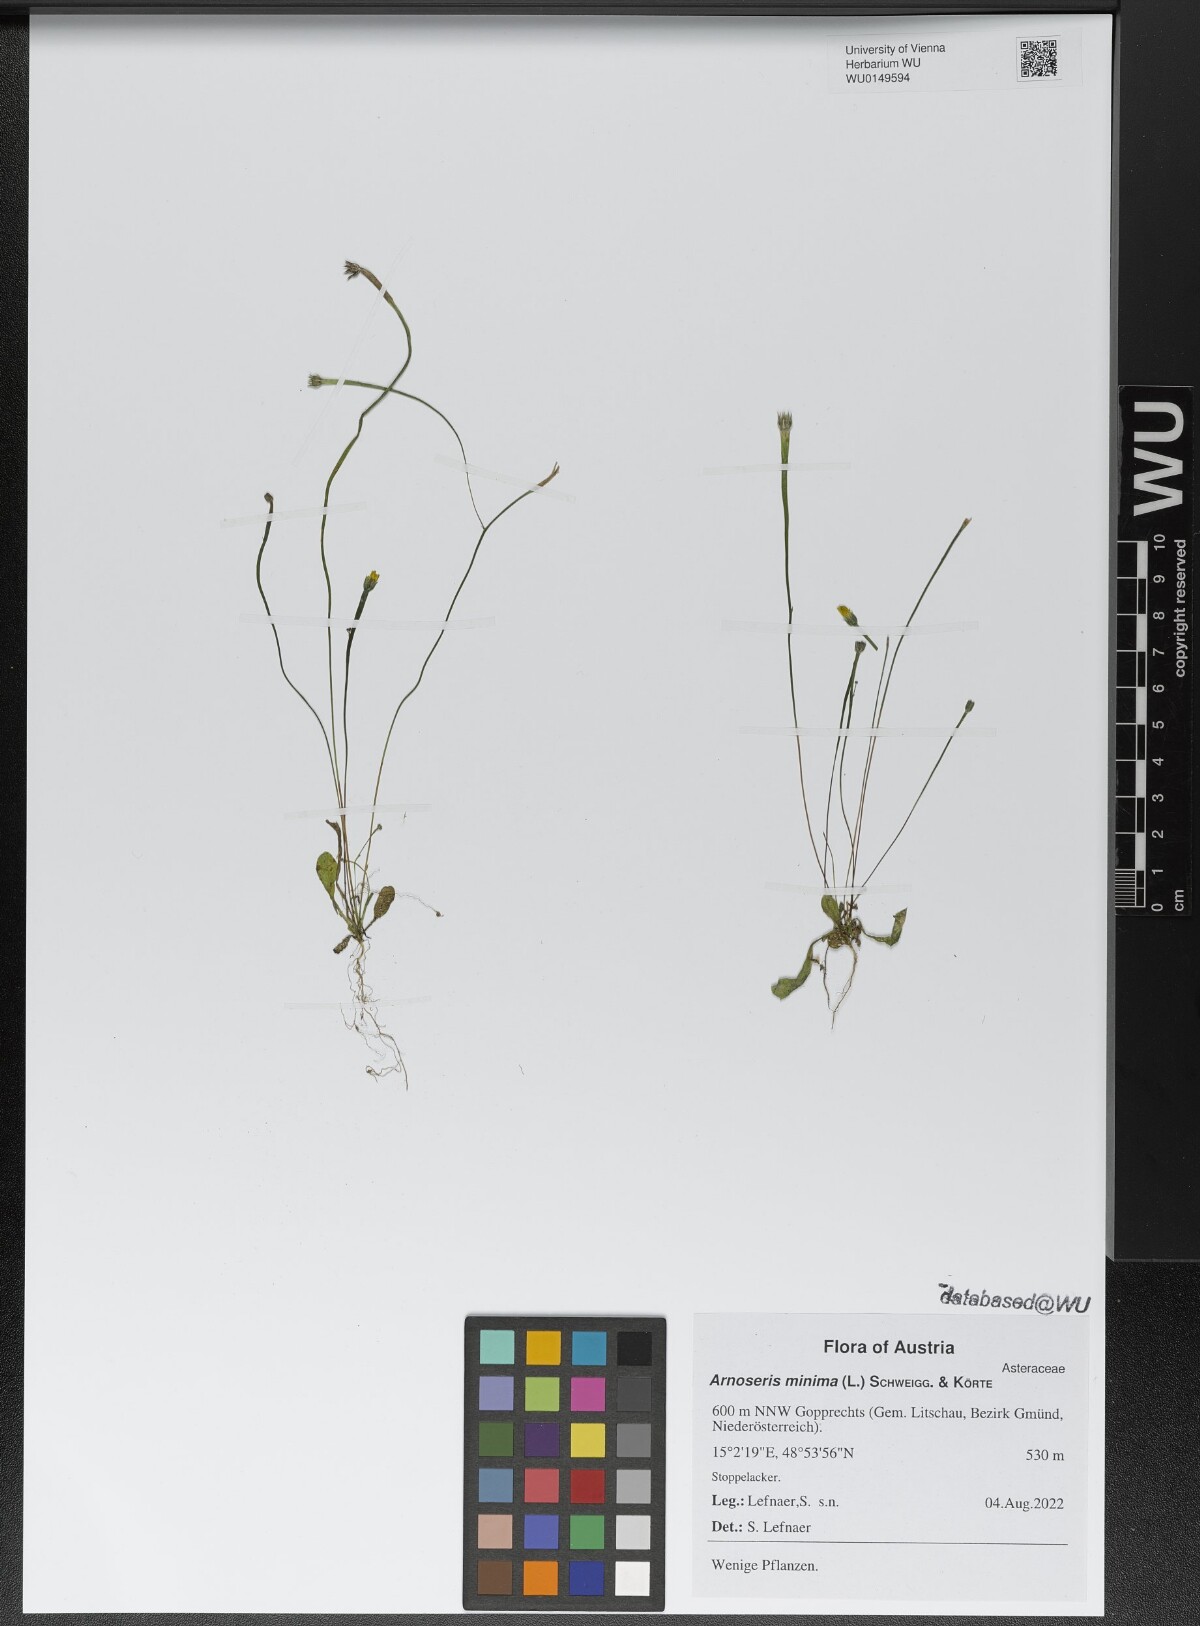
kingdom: Plantae
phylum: Tracheophyta
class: Magnoliopsida
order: Asterales
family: Asteraceae
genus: Arnoseris
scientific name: Arnoseris minima
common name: Lamb's succory
